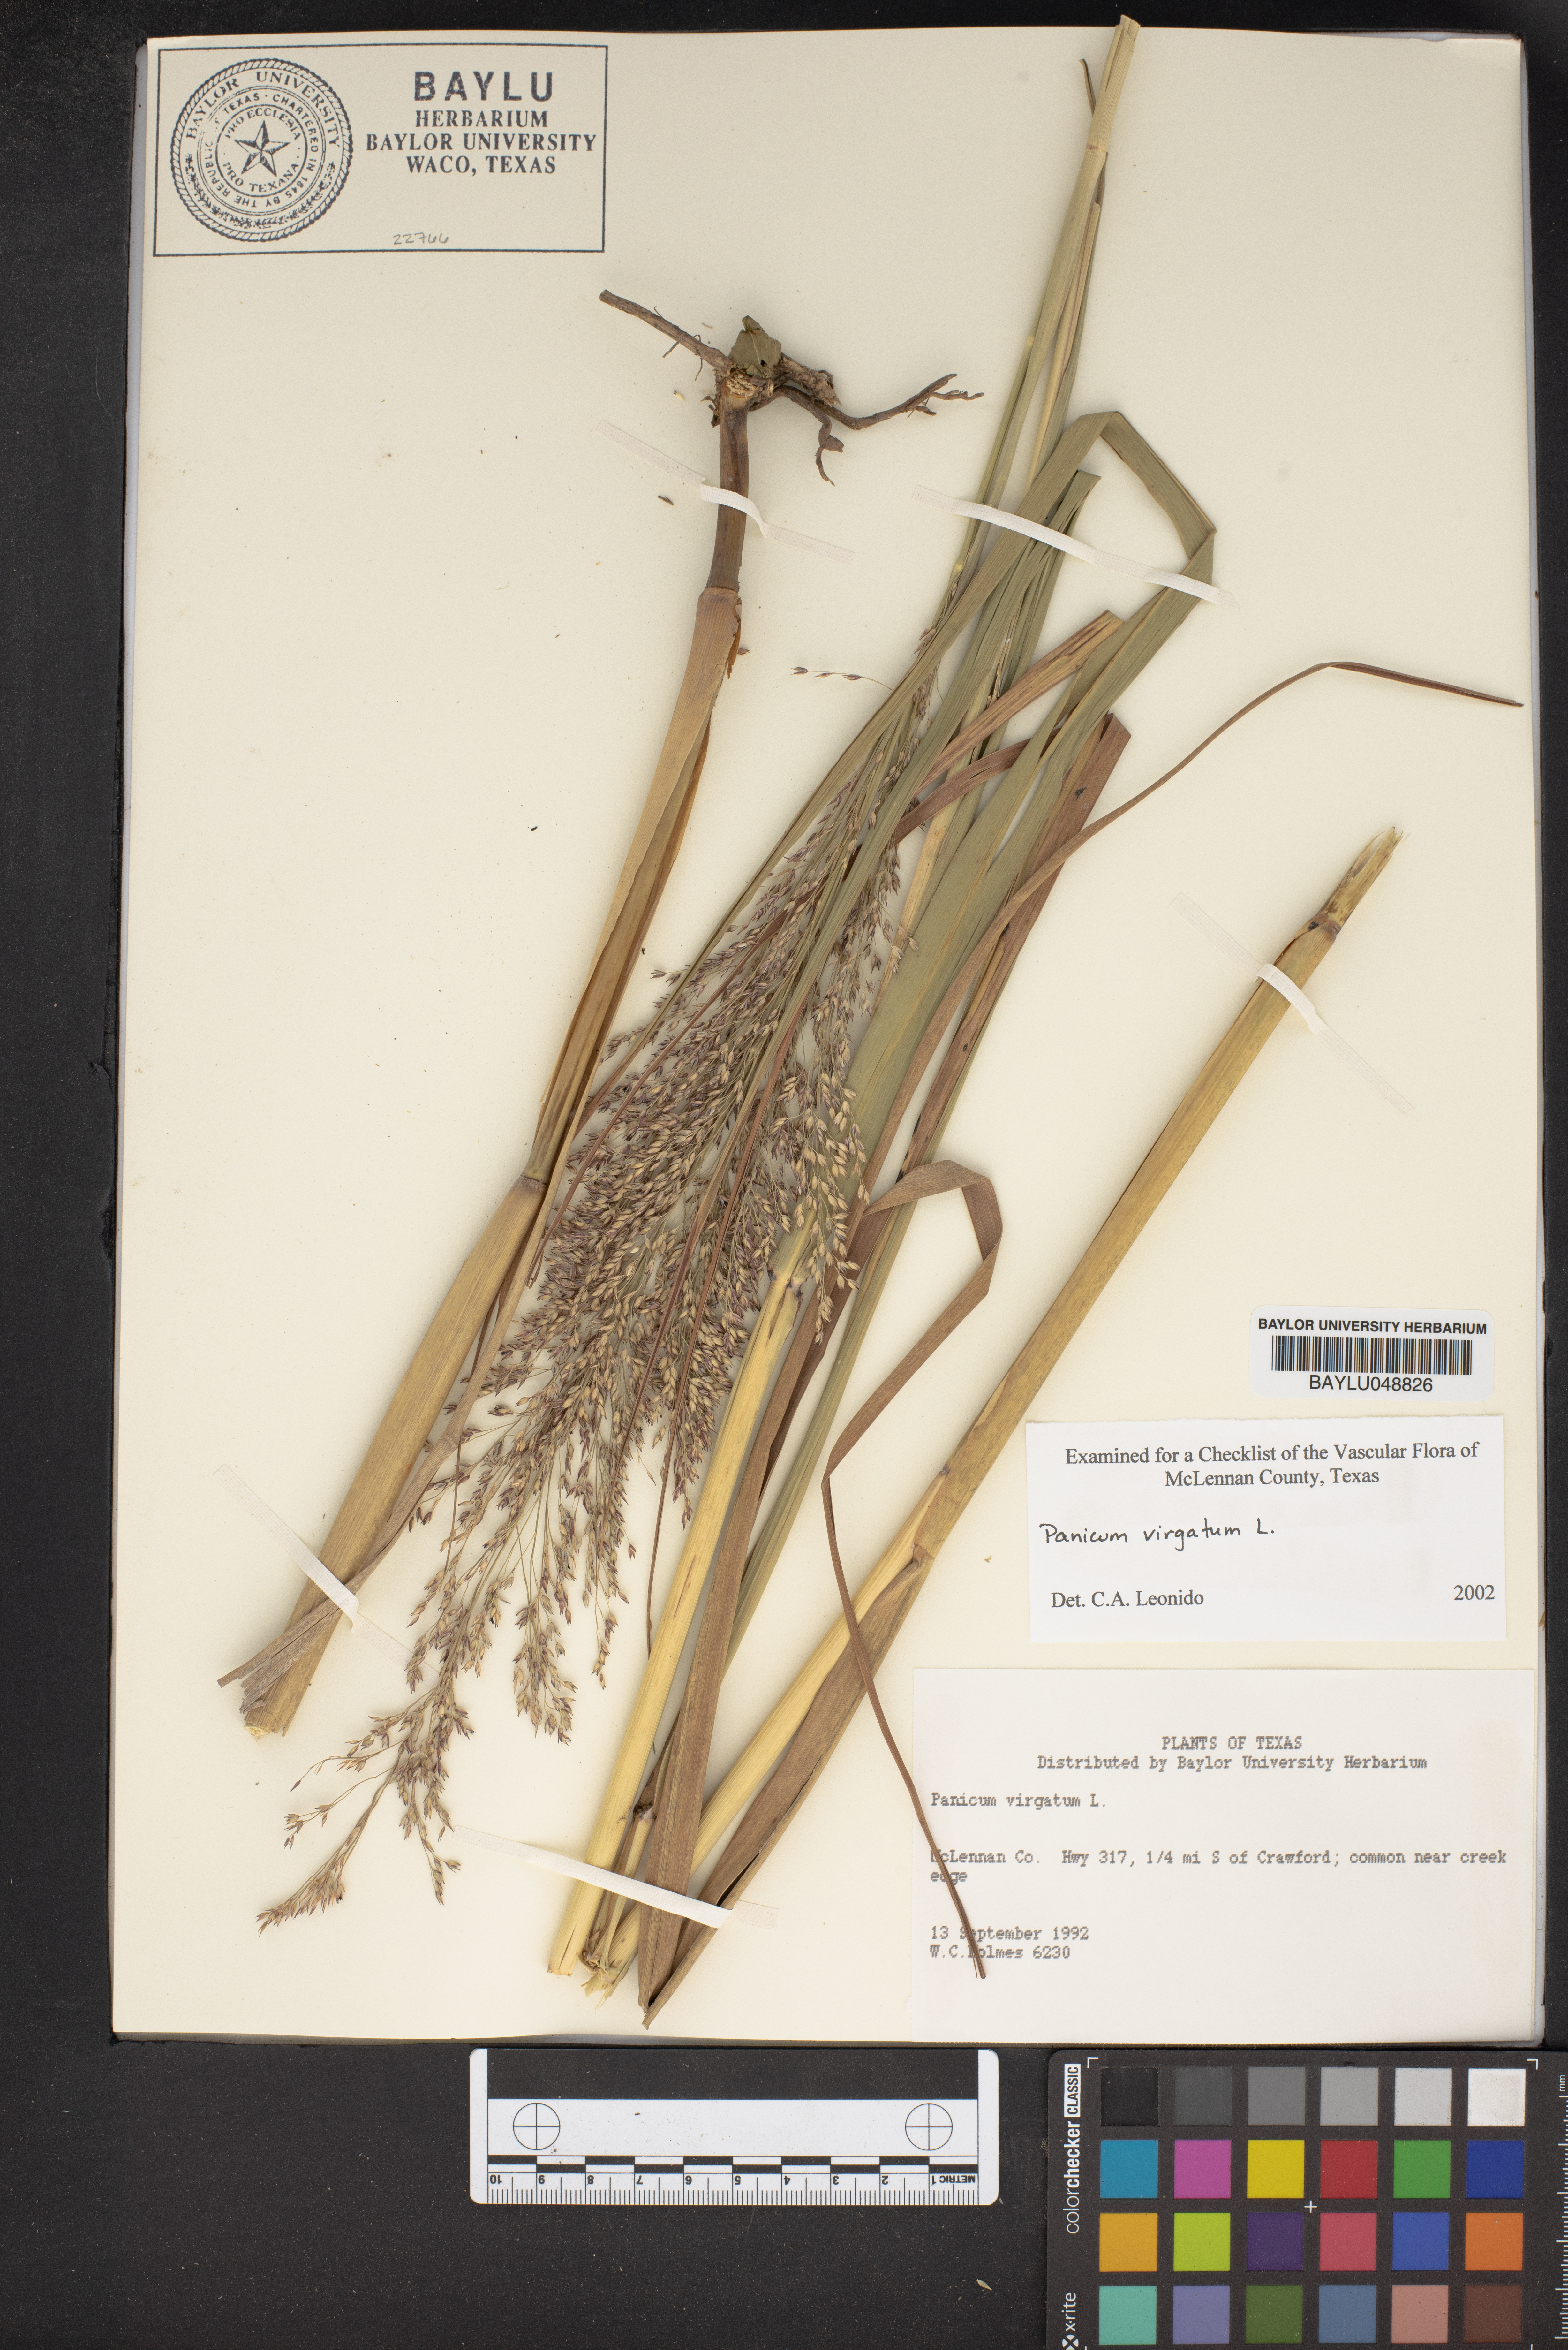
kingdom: Plantae
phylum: Tracheophyta
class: Liliopsida
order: Poales
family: Poaceae
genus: Panicum
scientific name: Panicum virgatum
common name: Switchgrass
